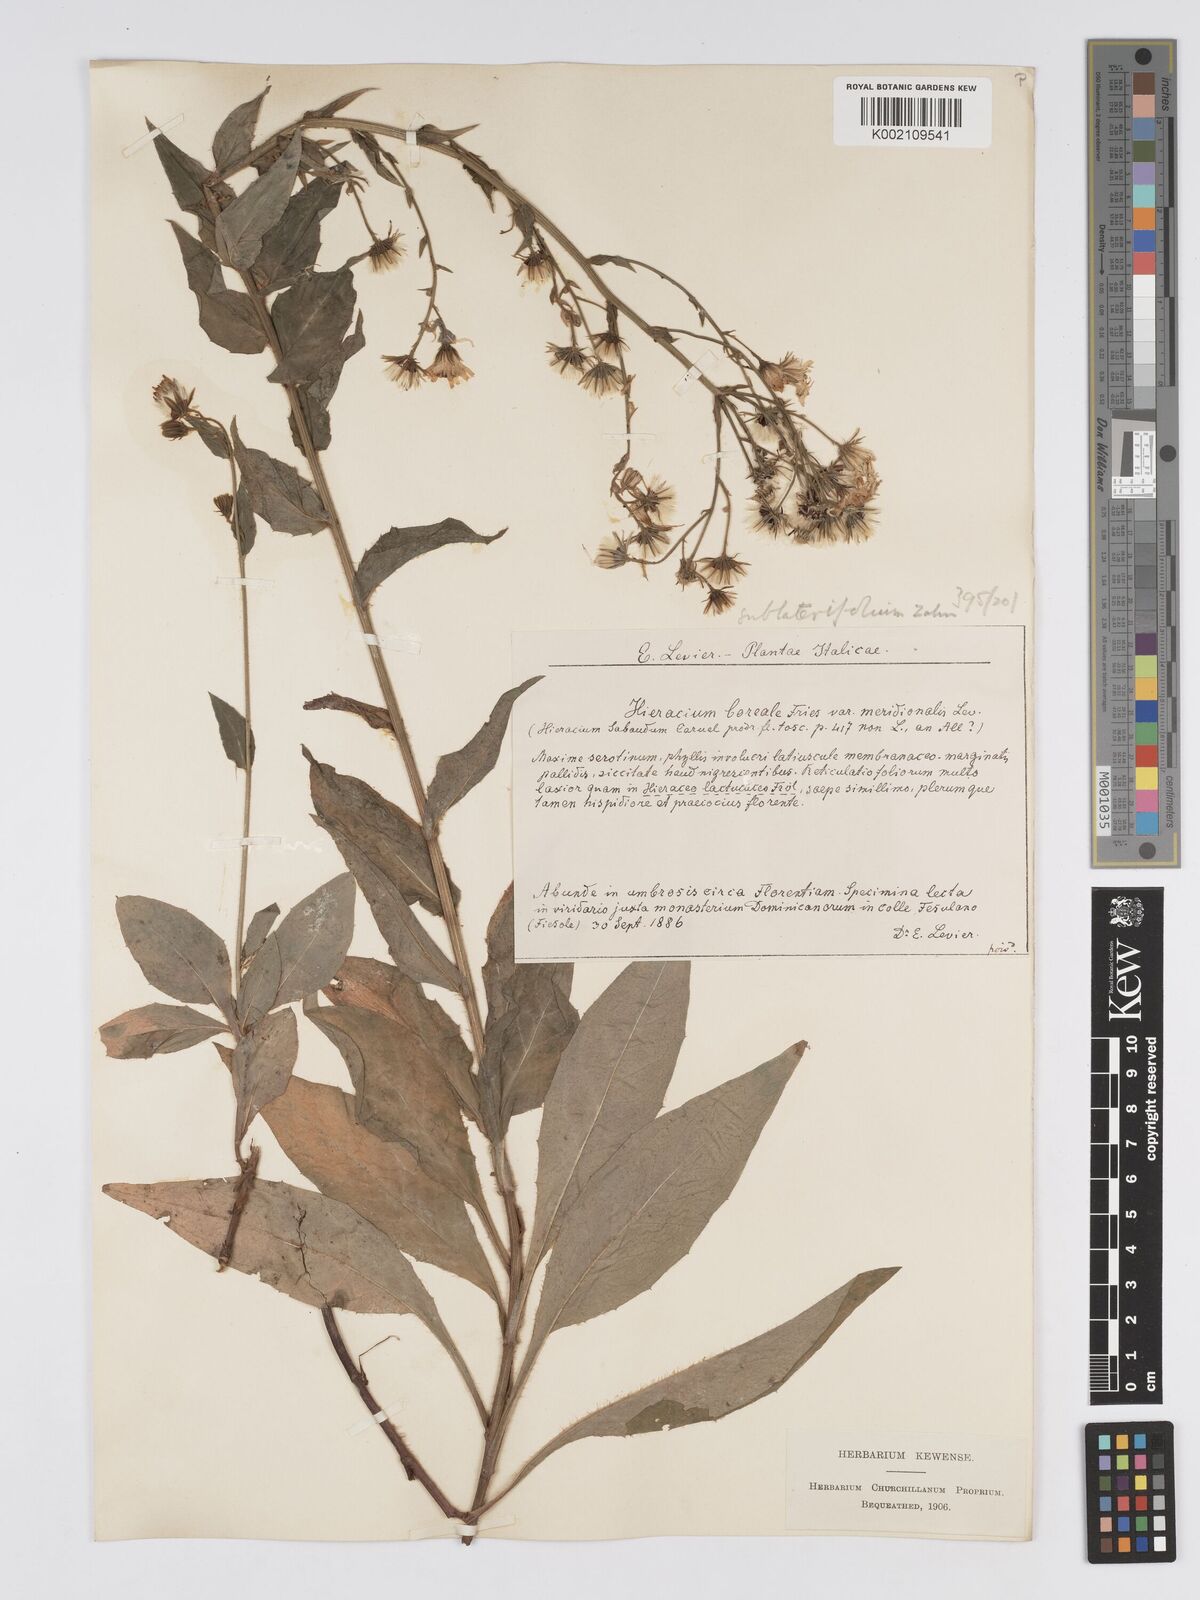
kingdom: Plantae
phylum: Tracheophyta
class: Magnoliopsida
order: Asterales
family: Asteraceae
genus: Hieracium
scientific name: Hieracium racemosum
